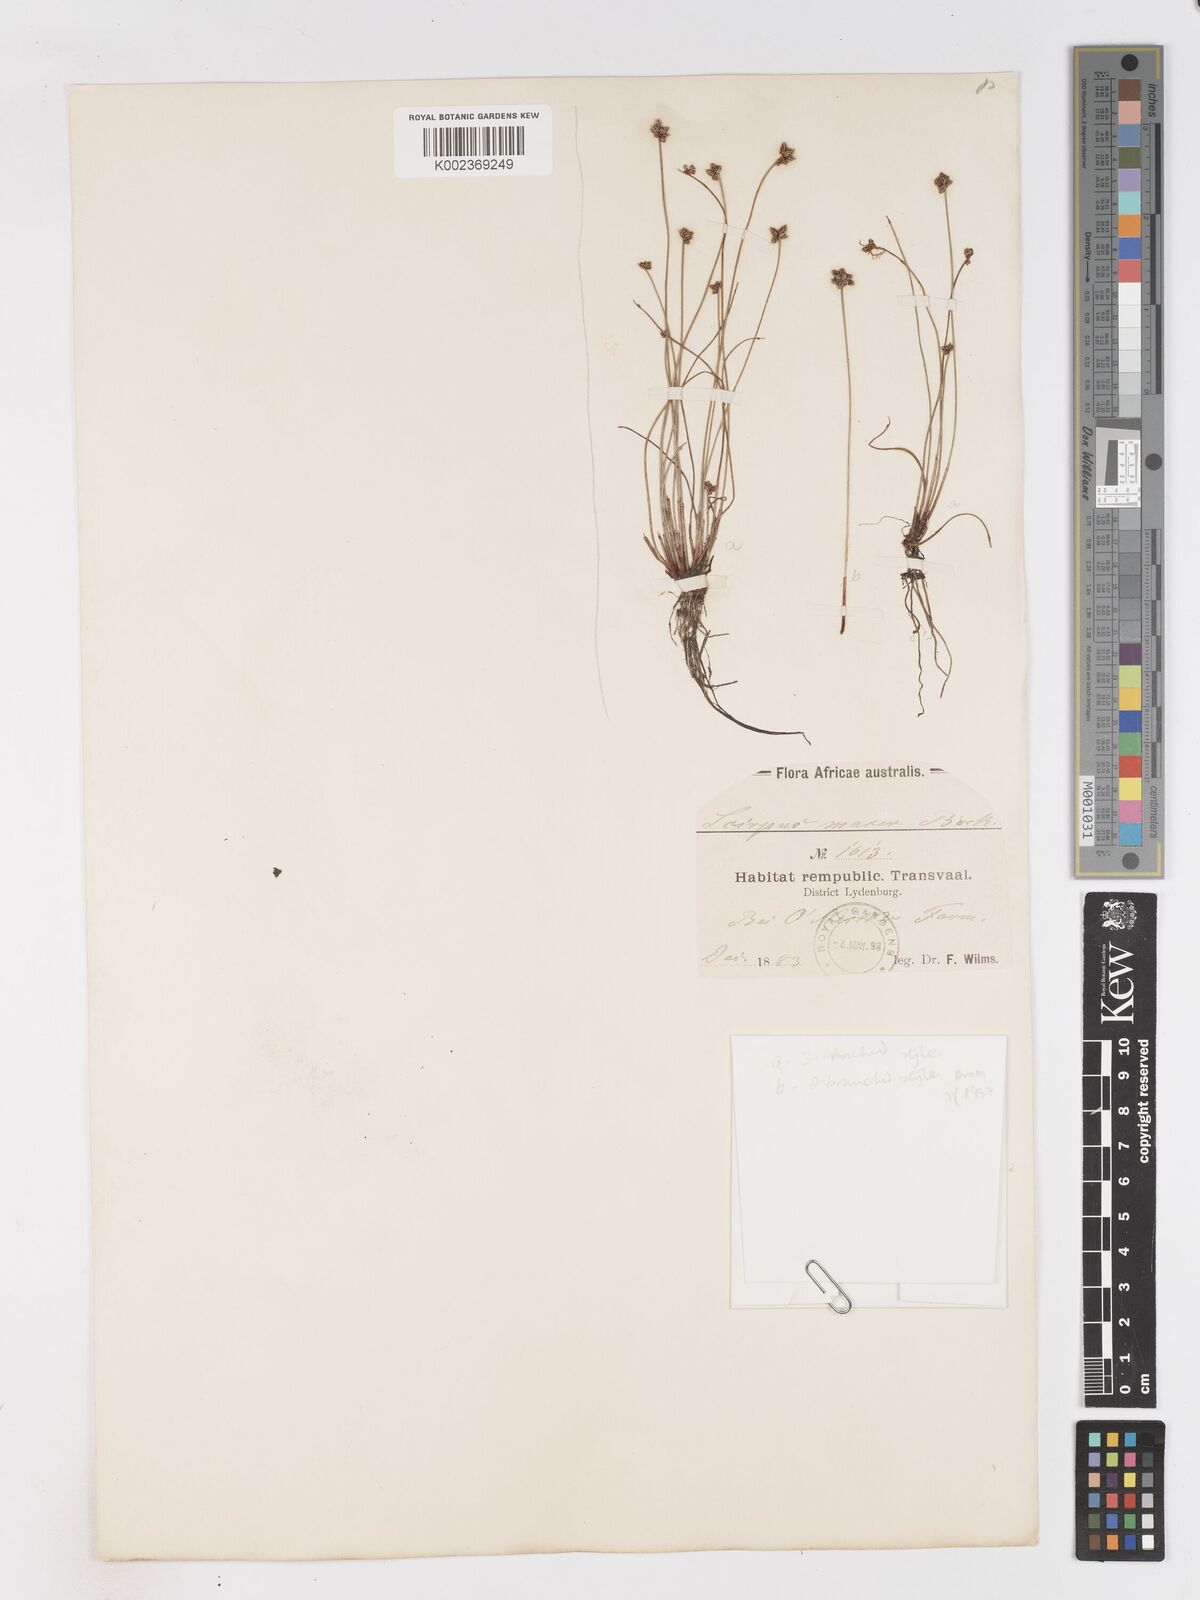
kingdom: Plantae
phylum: Tracheophyta
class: Liliopsida
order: Poales
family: Cyperaceae
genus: Isolepis
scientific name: Isolepis costata
